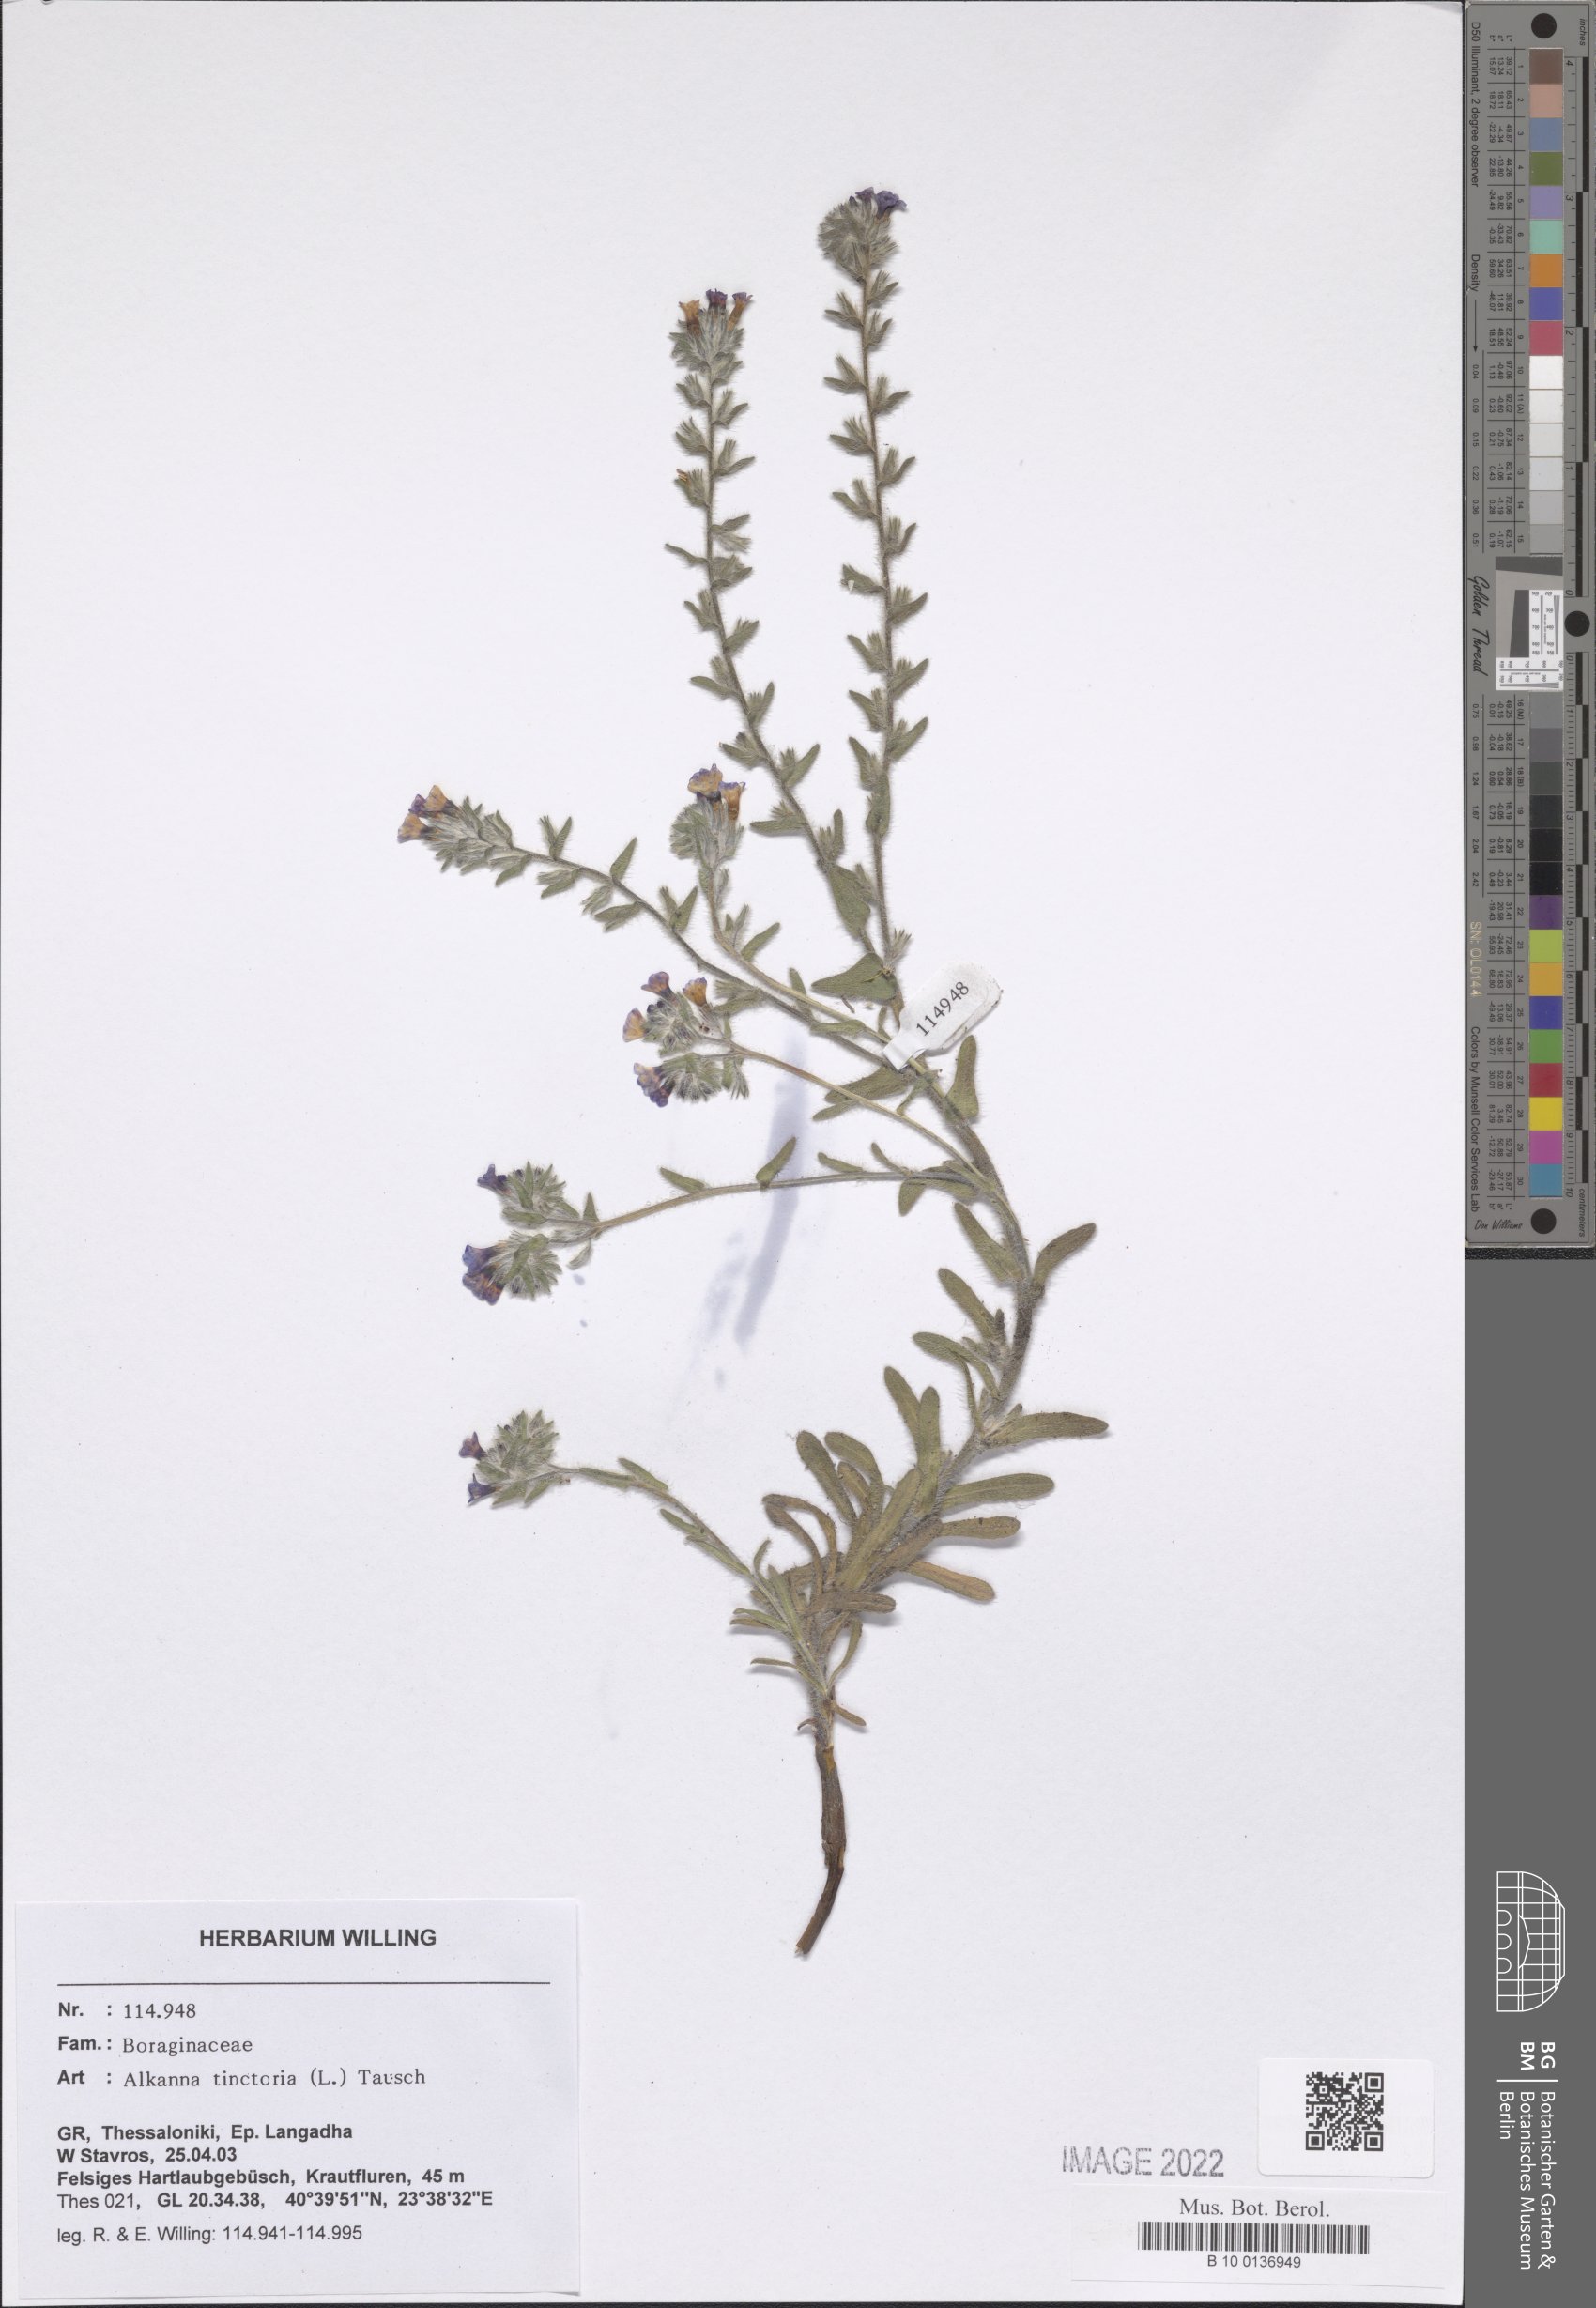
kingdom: Plantae
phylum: Tracheophyta
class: Magnoliopsida
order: Boraginales
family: Boraginaceae
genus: Alkanna
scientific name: Alkanna tinctoria
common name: Dyer's-alkanet
